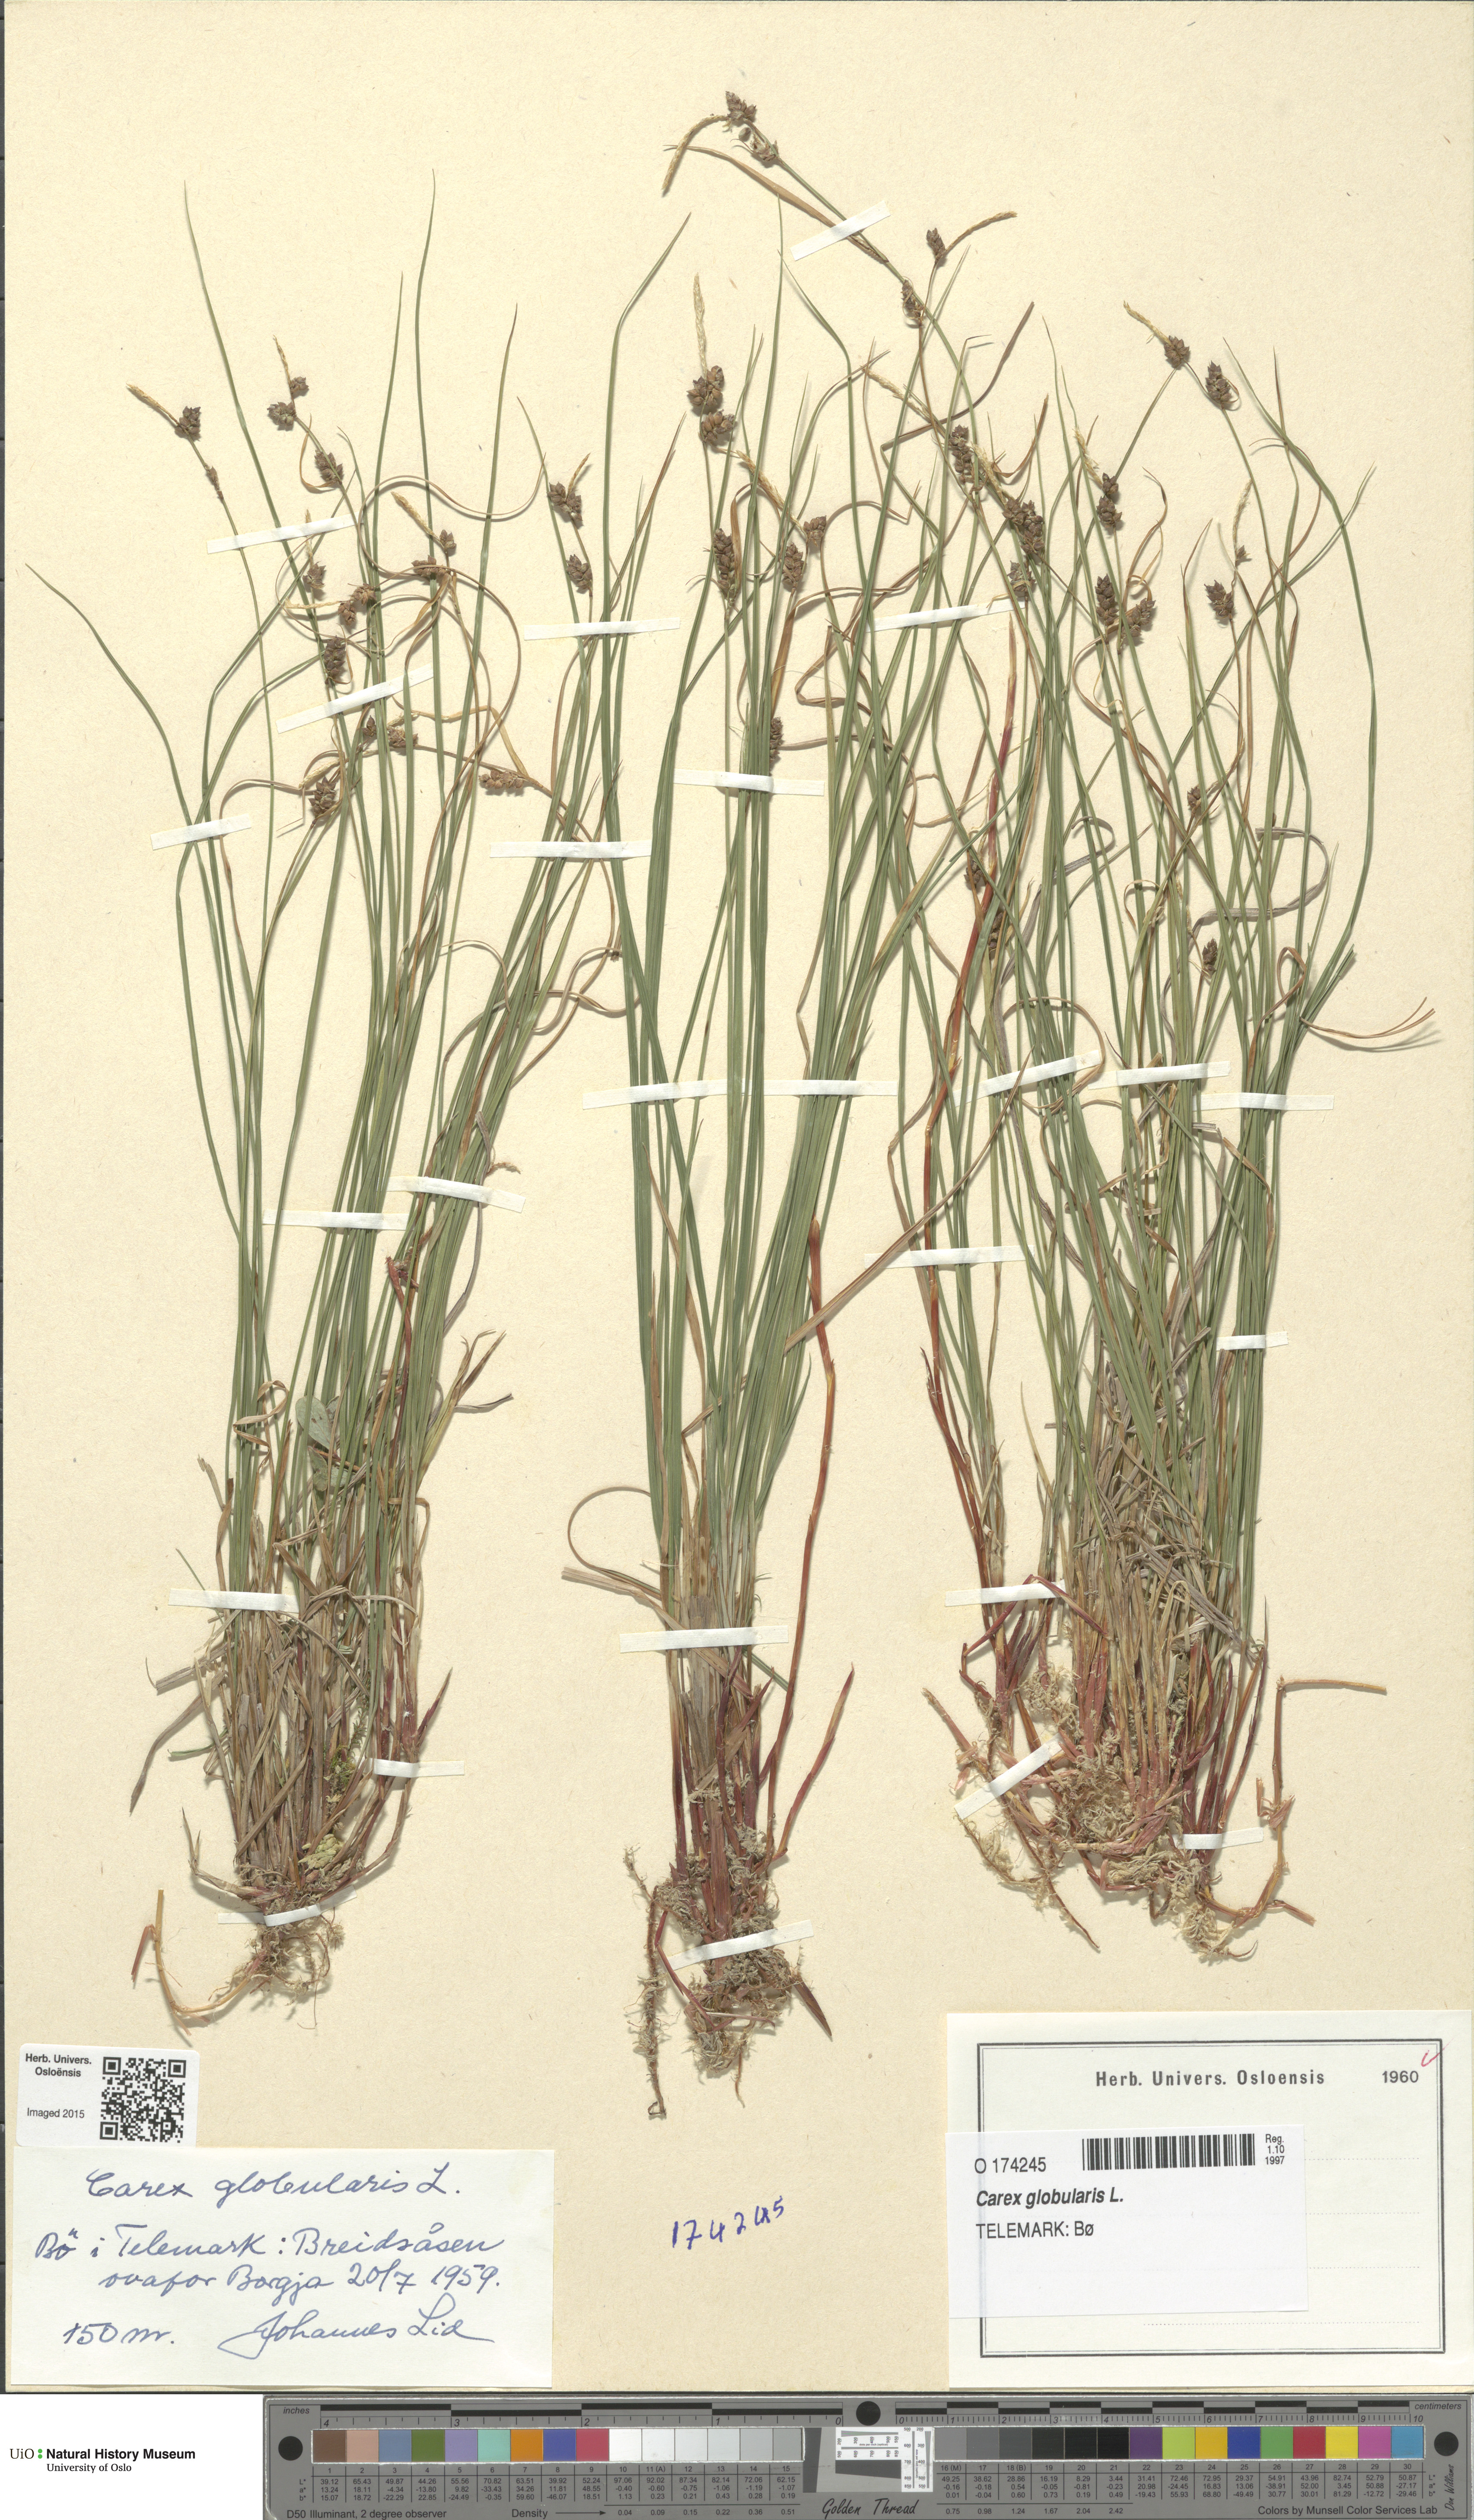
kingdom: Plantae
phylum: Tracheophyta
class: Liliopsida
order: Poales
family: Cyperaceae
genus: Carex
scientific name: Carex globularis
